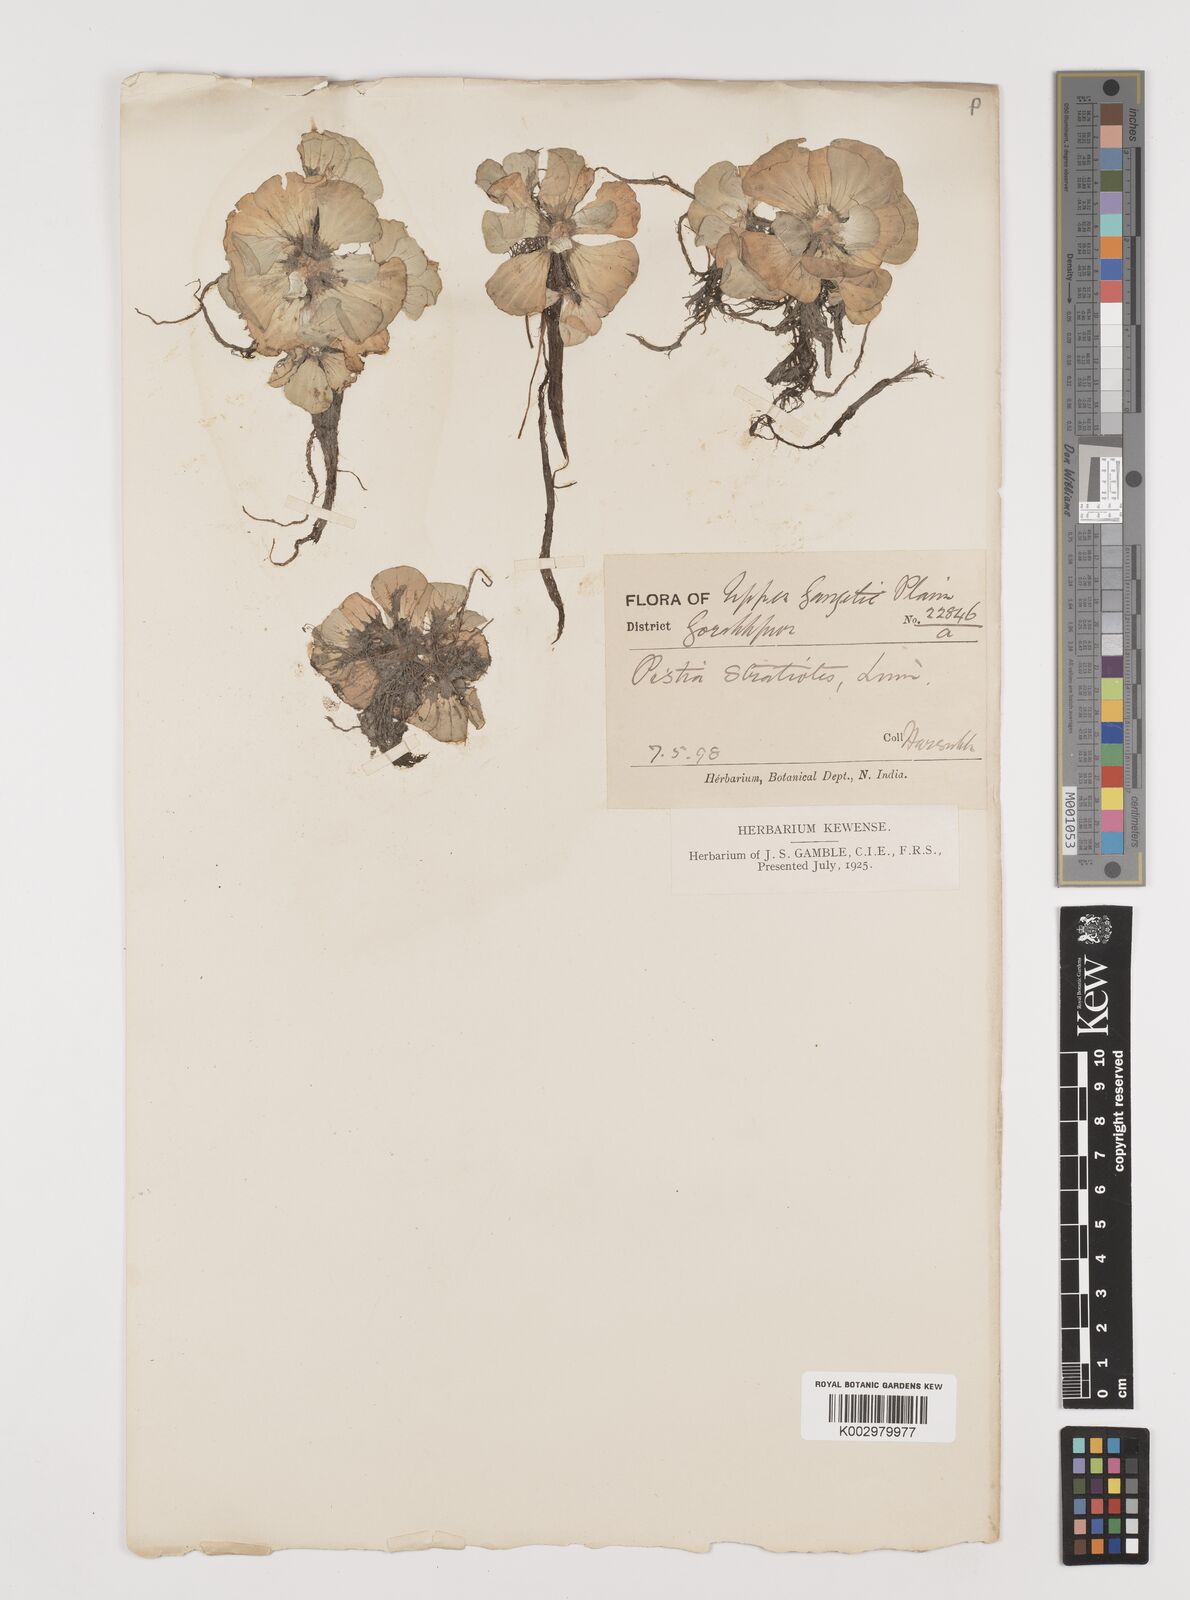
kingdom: Plantae
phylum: Tracheophyta
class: Liliopsida
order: Alismatales
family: Araceae
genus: Pistia
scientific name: Pistia stratiotes
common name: Water lettuce
